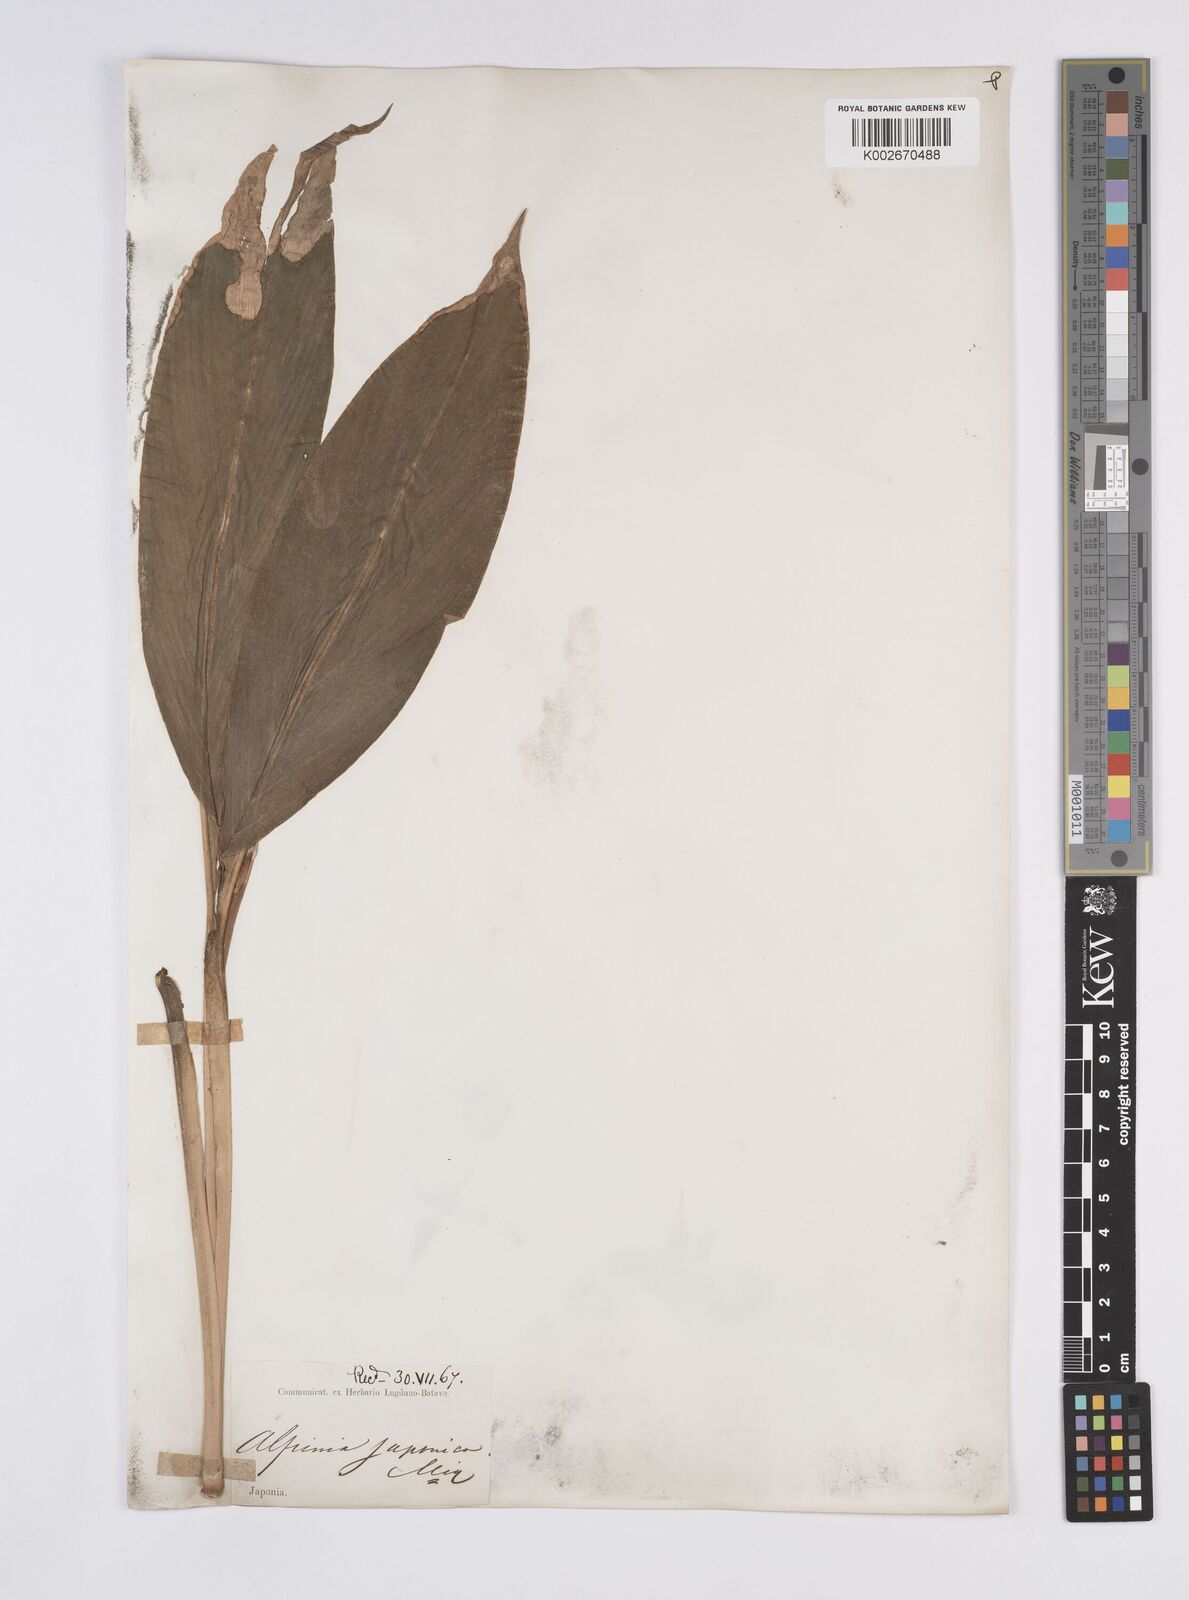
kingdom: Plantae
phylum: Tracheophyta
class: Liliopsida
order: Zingiberales
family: Zingiberaceae
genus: Alpinia
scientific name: Alpinia japonica
